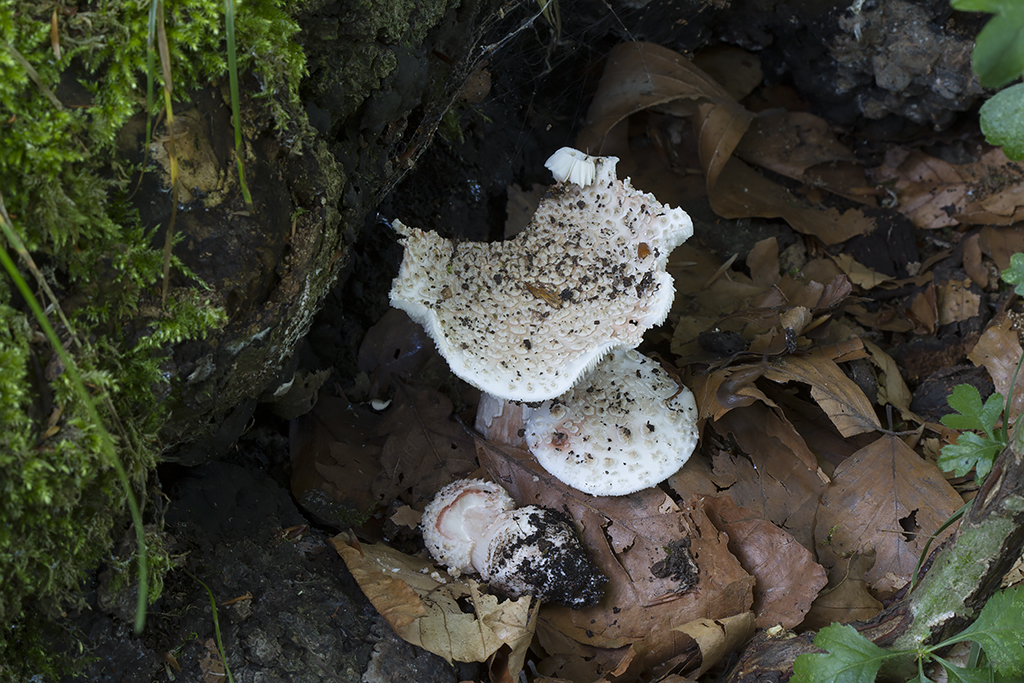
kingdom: Fungi
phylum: Basidiomycota
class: Agaricomycetes
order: Agaricales
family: Amanitaceae
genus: Amanita
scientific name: Amanita rubescens
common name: rødmende fluesvamp
